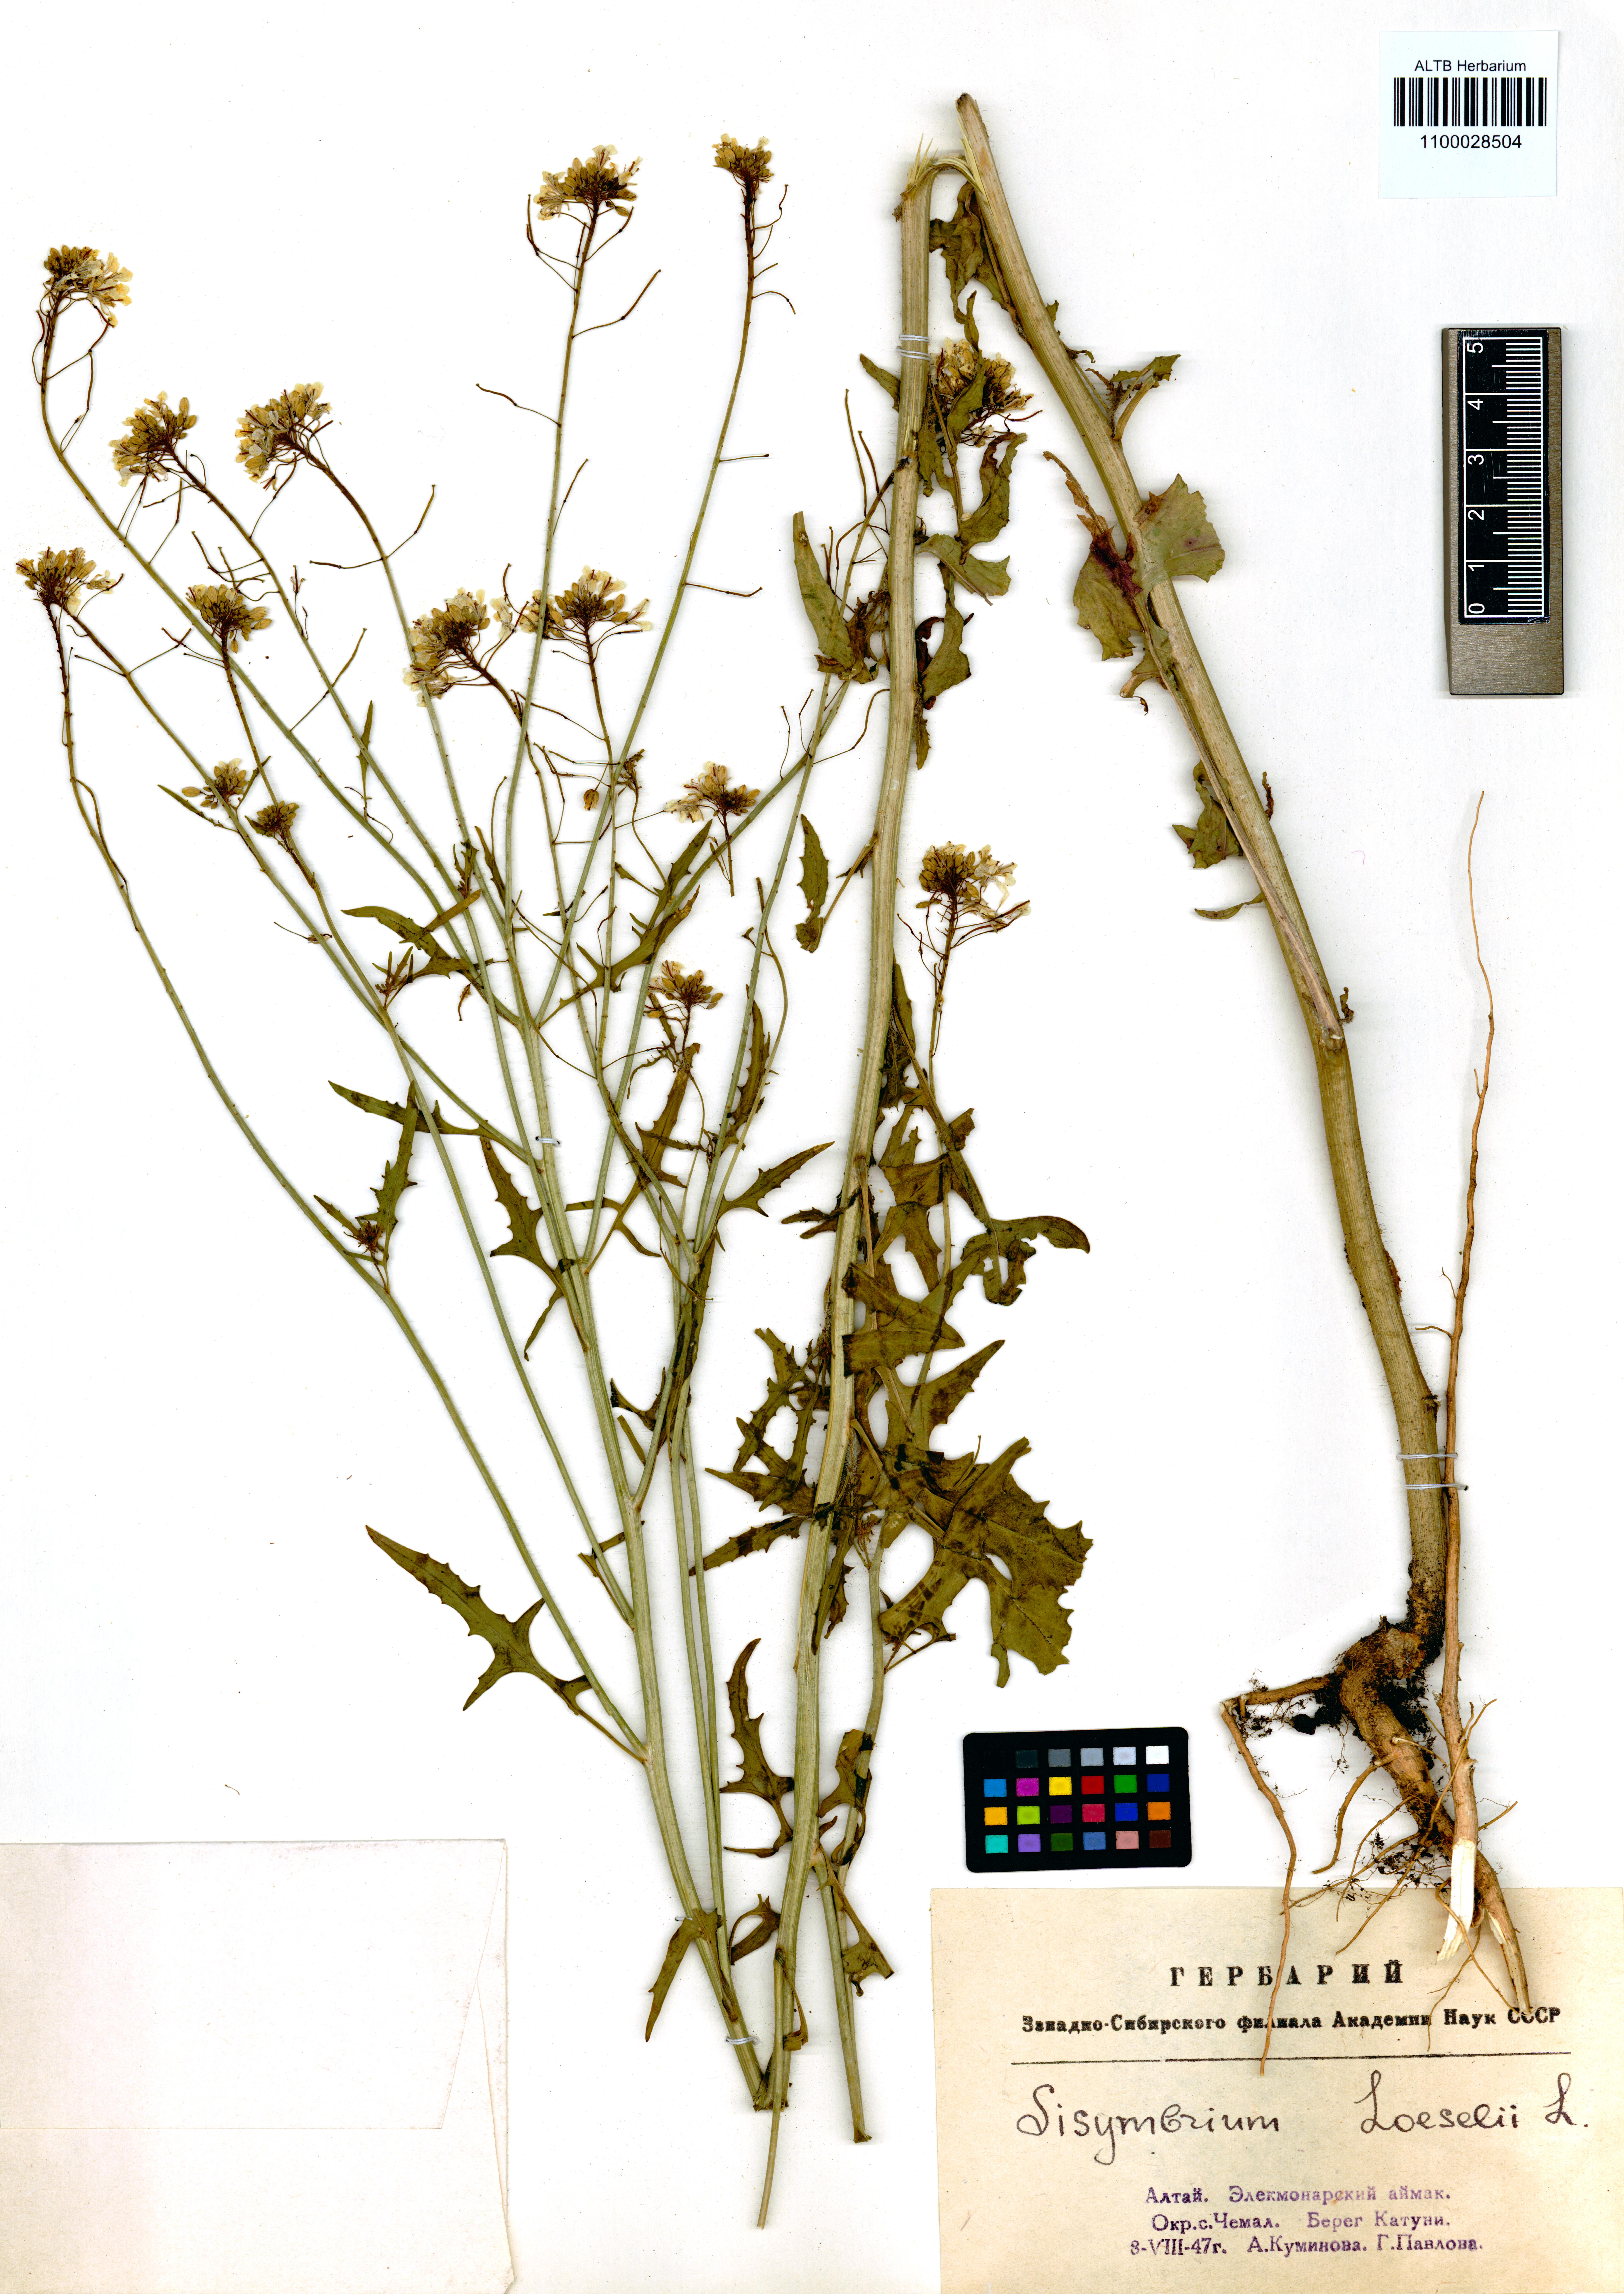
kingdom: Plantae
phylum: Tracheophyta
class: Magnoliopsida
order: Brassicales
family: Brassicaceae
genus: Sisymbrium
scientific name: Sisymbrium loeselii
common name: False london-rocket
